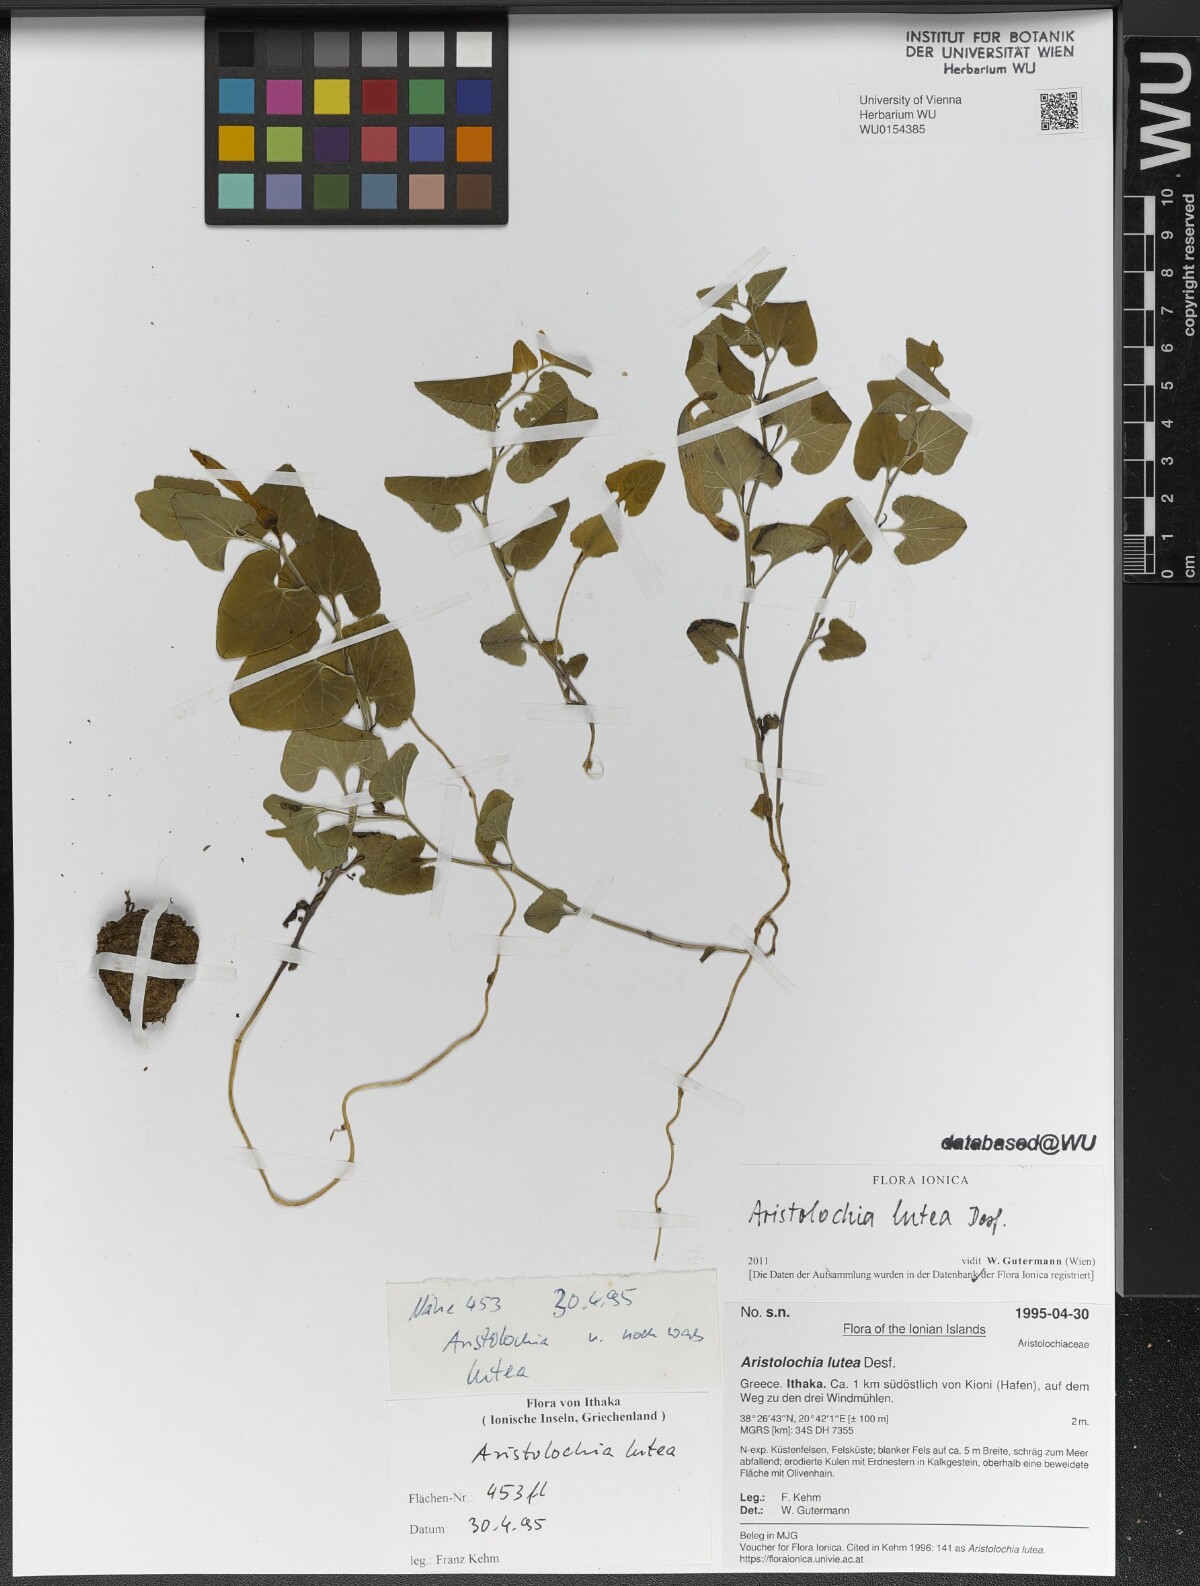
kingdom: Plantae
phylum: Tracheophyta
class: Magnoliopsida
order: Piperales
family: Aristolochiaceae
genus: Aristolochia
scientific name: Aristolochia lutea
